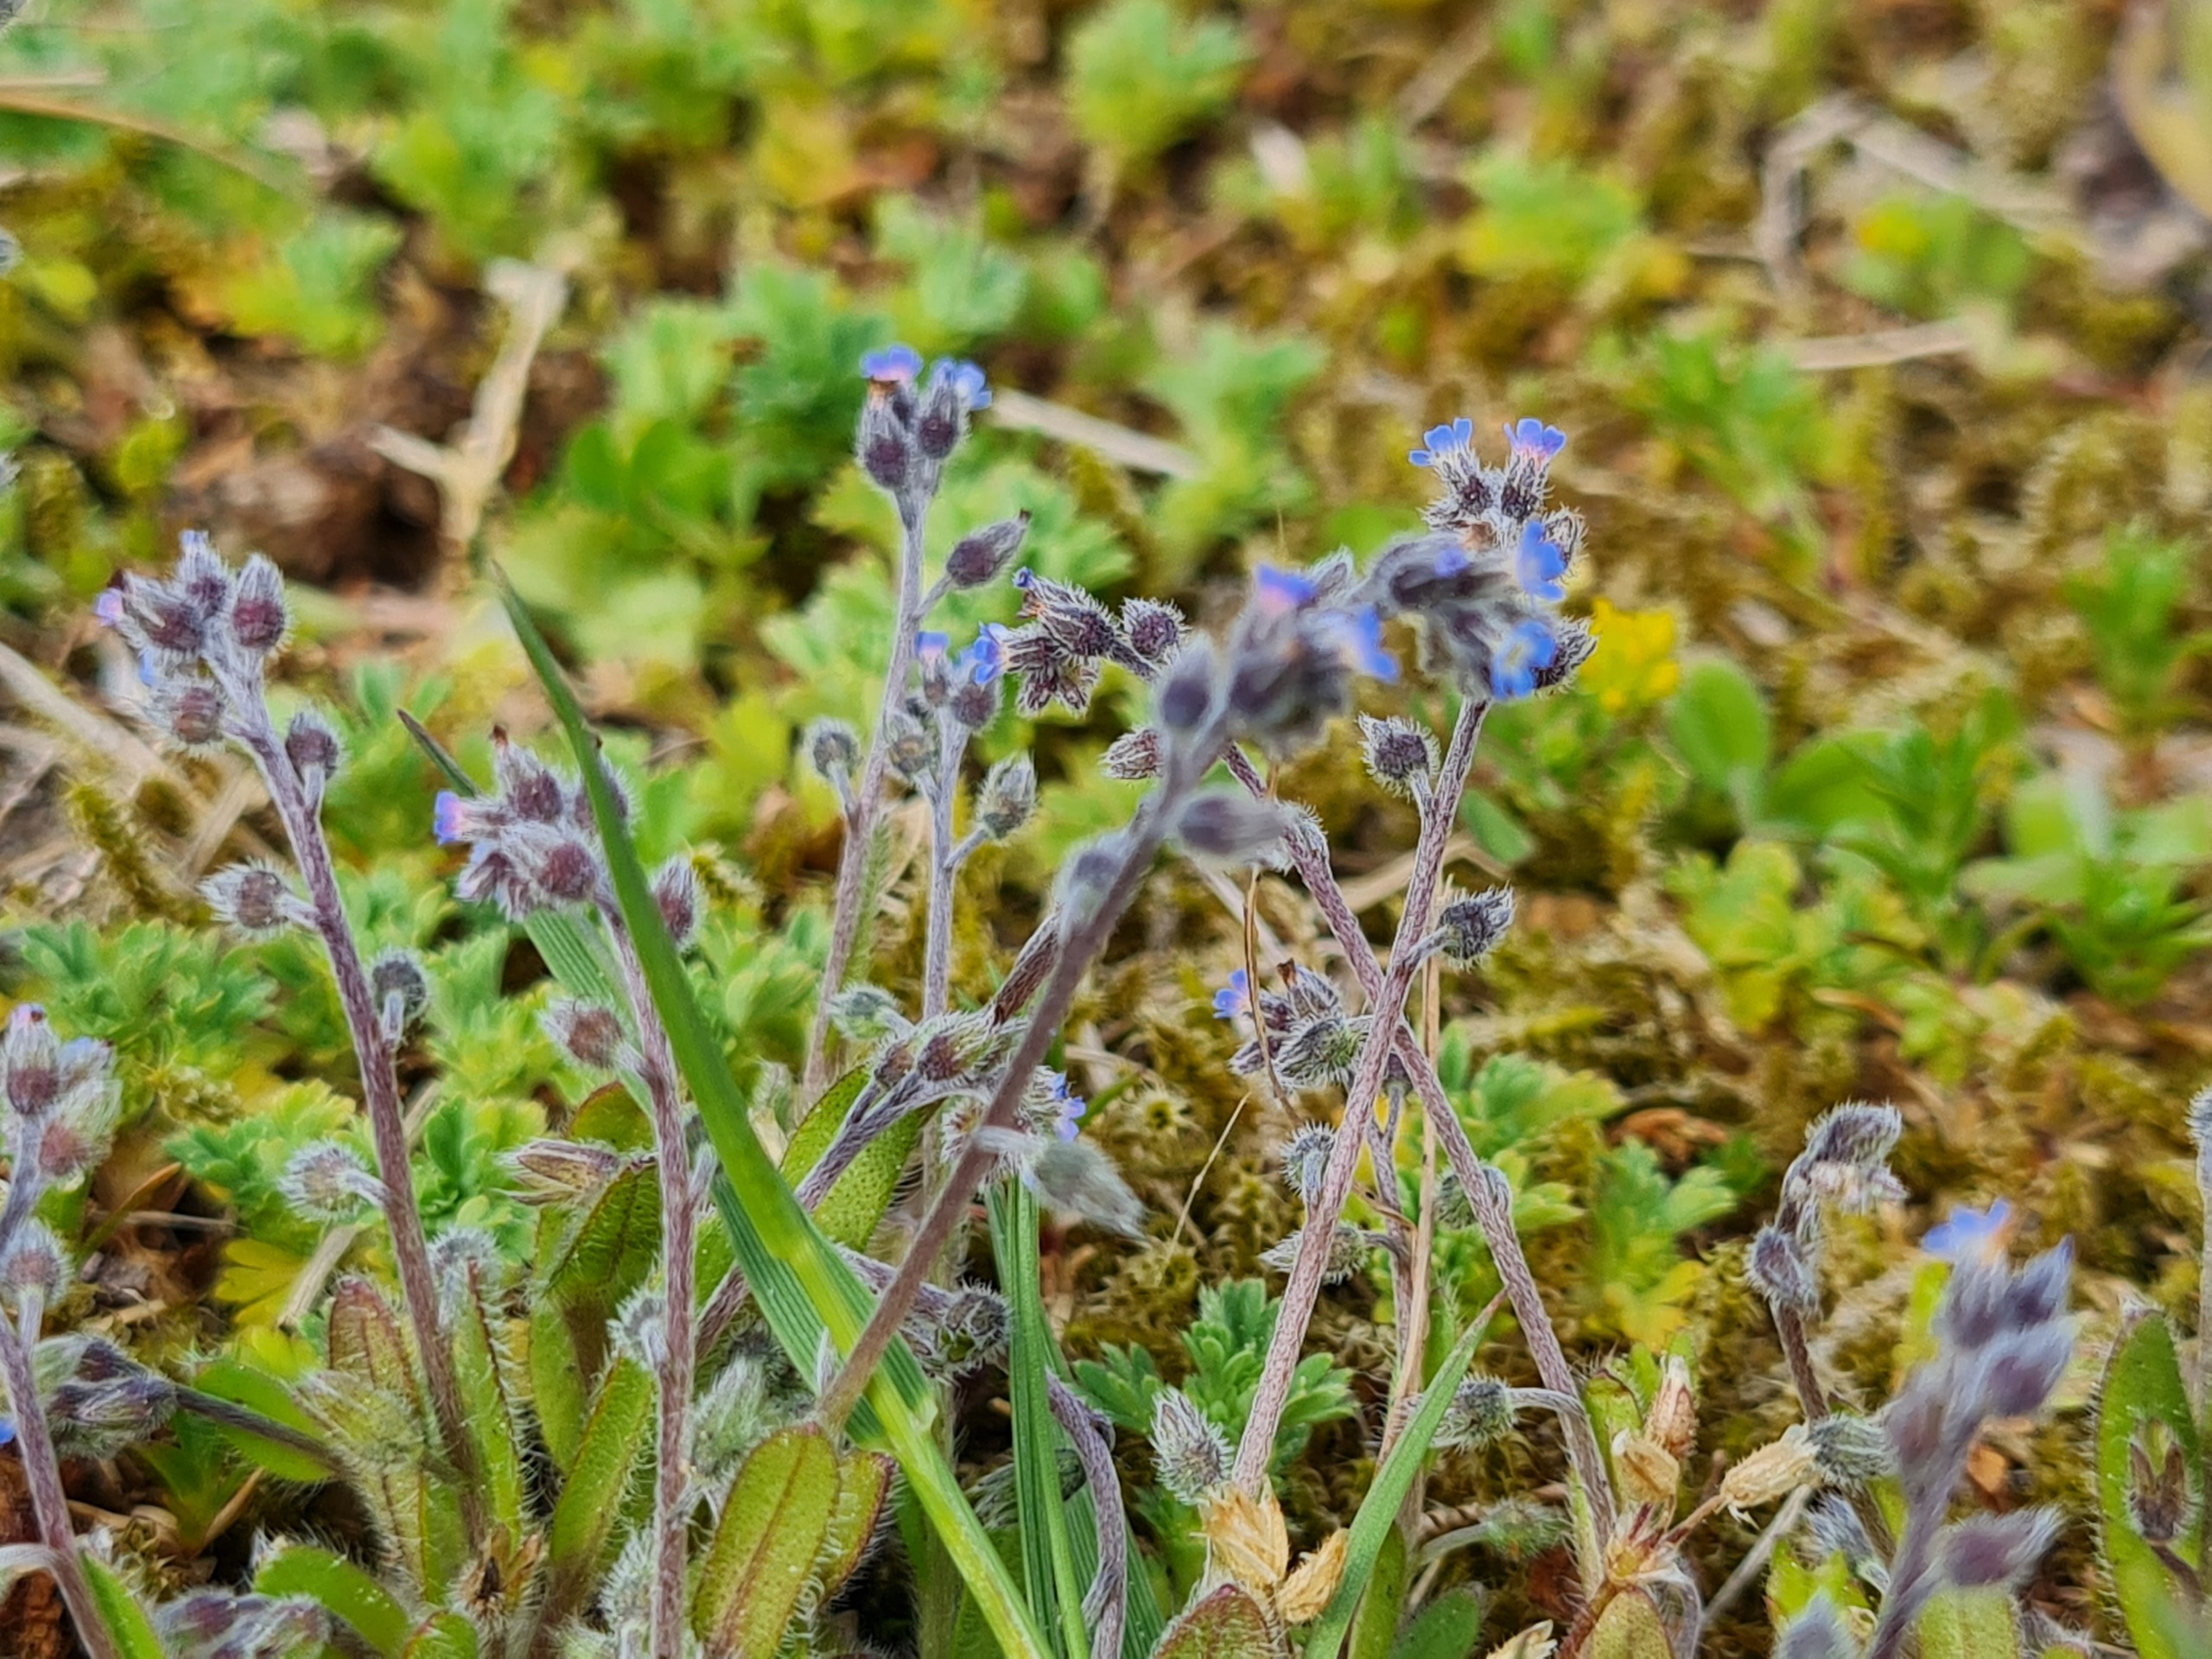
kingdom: Plantae
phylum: Tracheophyta
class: Magnoliopsida
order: Boraginales
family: Boraginaceae
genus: Myosotis
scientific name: Myosotis ramosissima
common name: Bakke-forglemmigej
